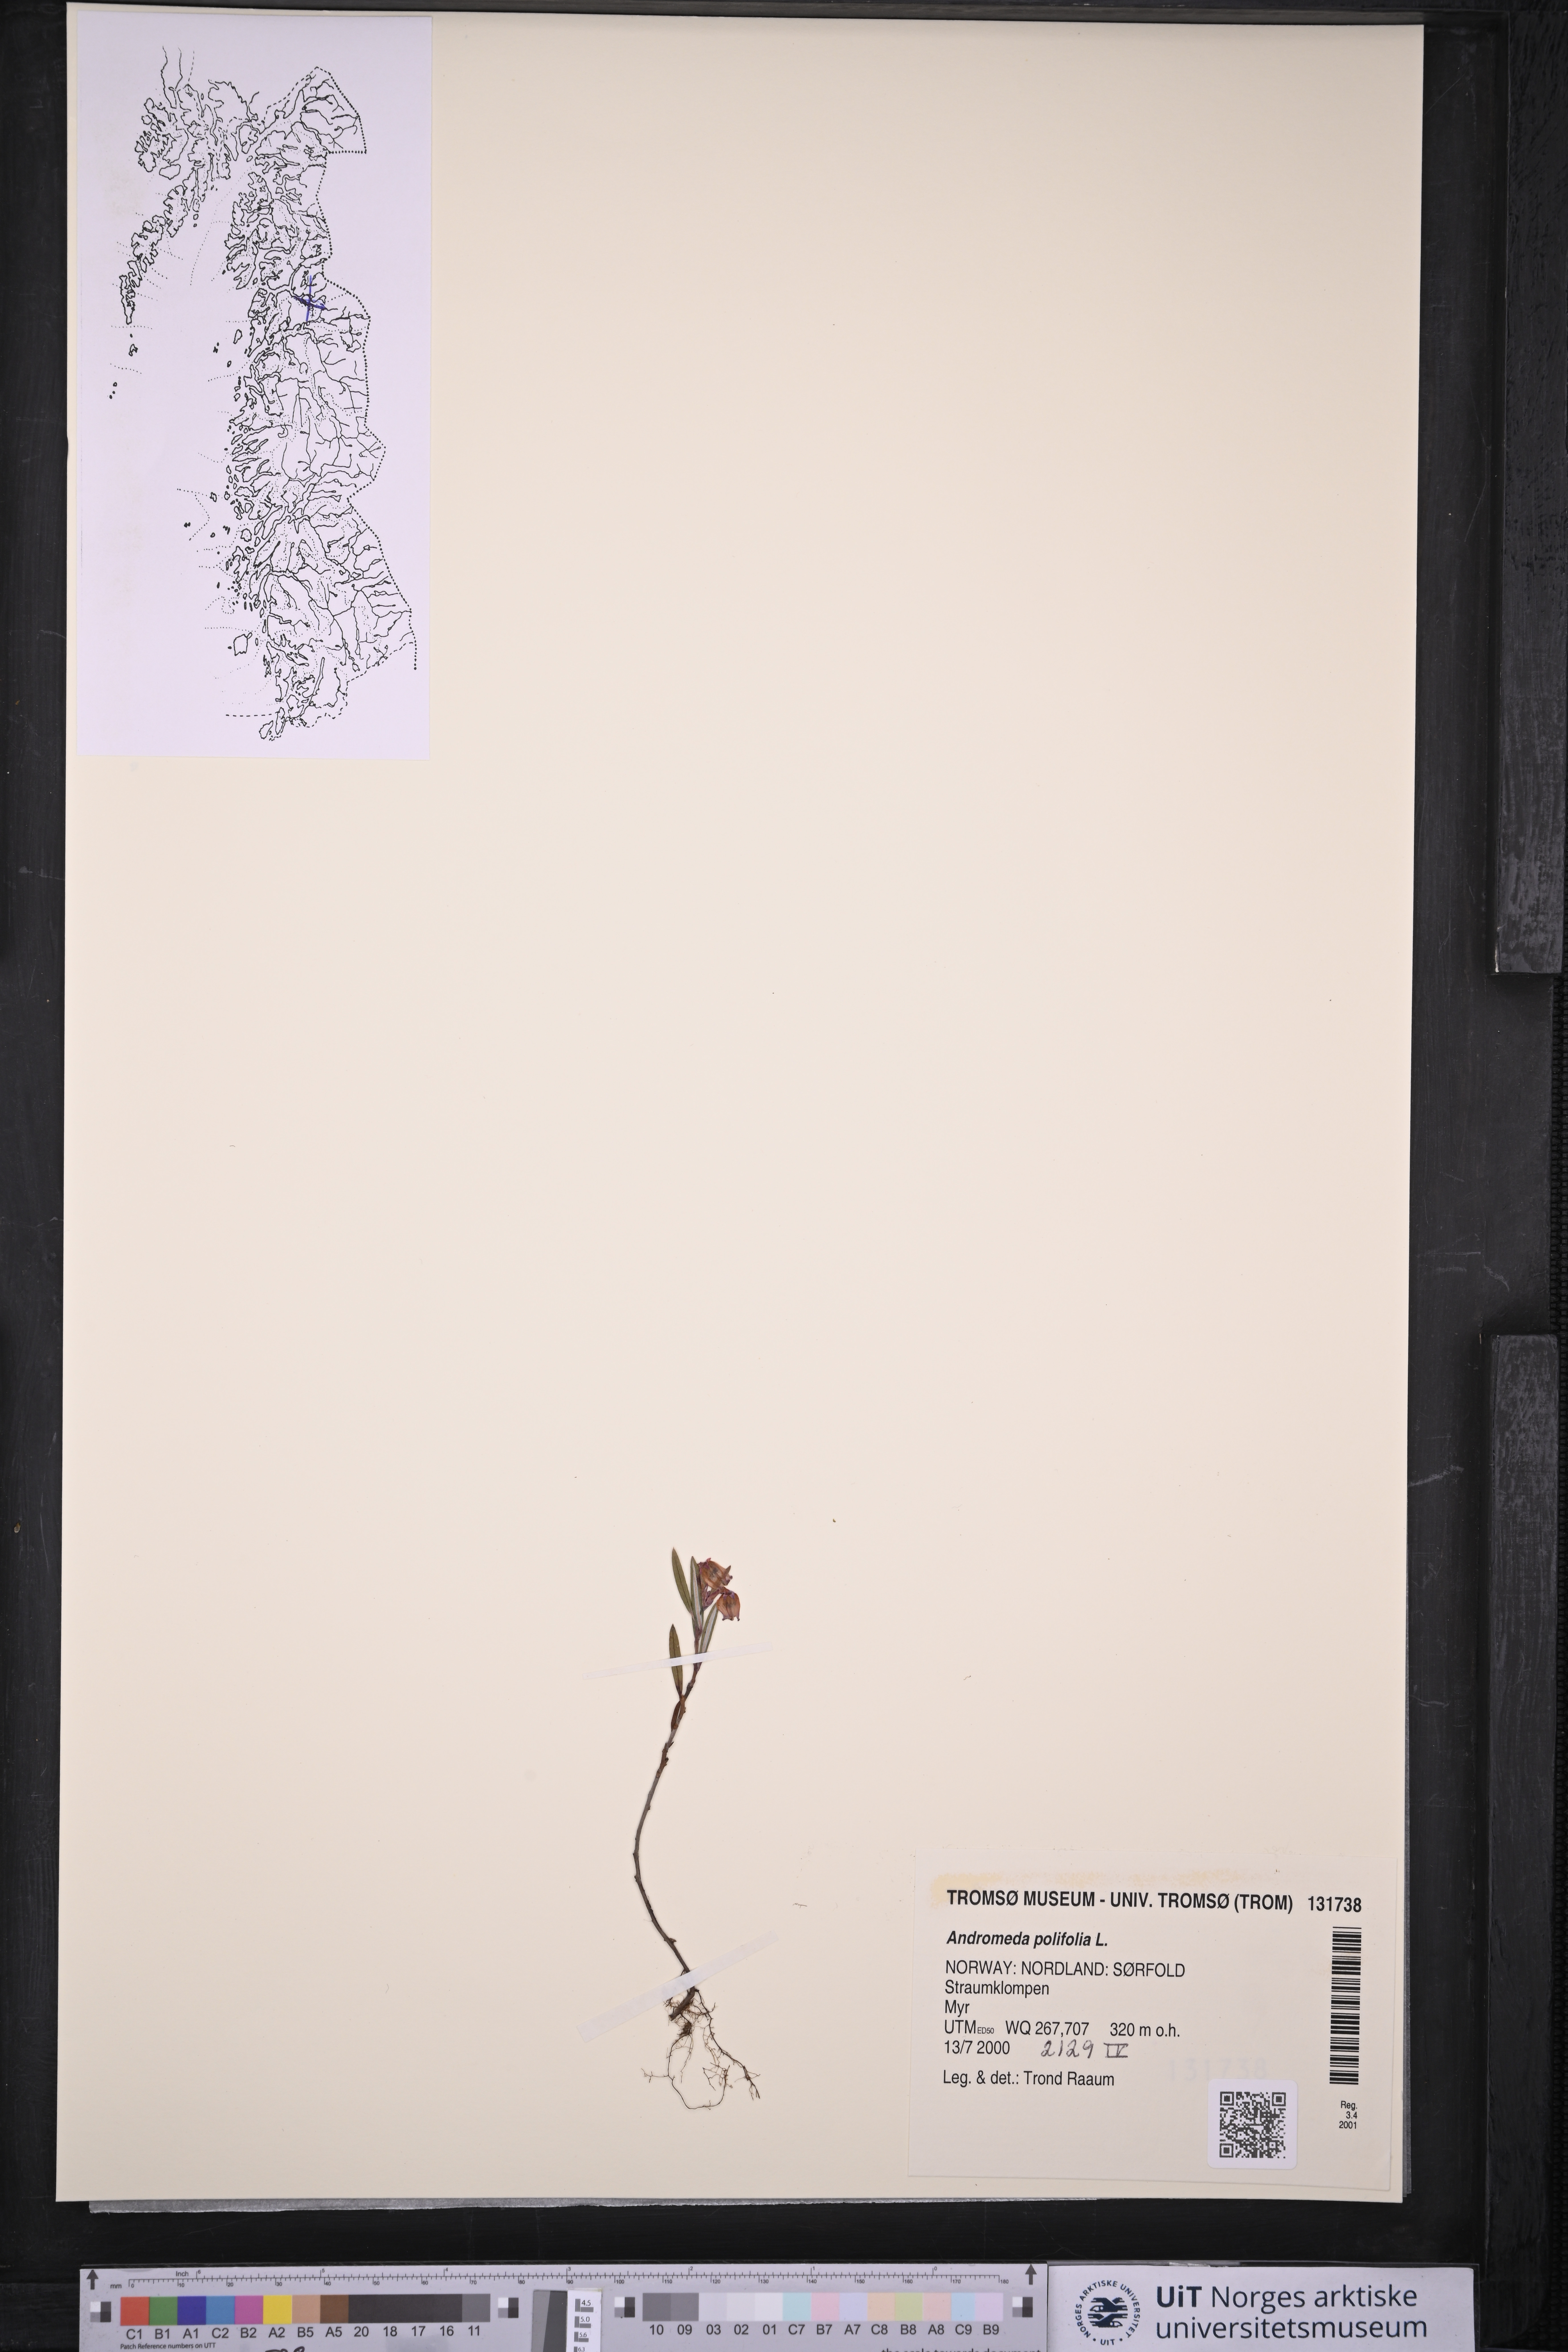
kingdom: Plantae
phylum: Tracheophyta
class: Magnoliopsida
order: Ericales
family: Ericaceae
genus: Andromeda
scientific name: Andromeda polifolia
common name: Bog-rosemary
